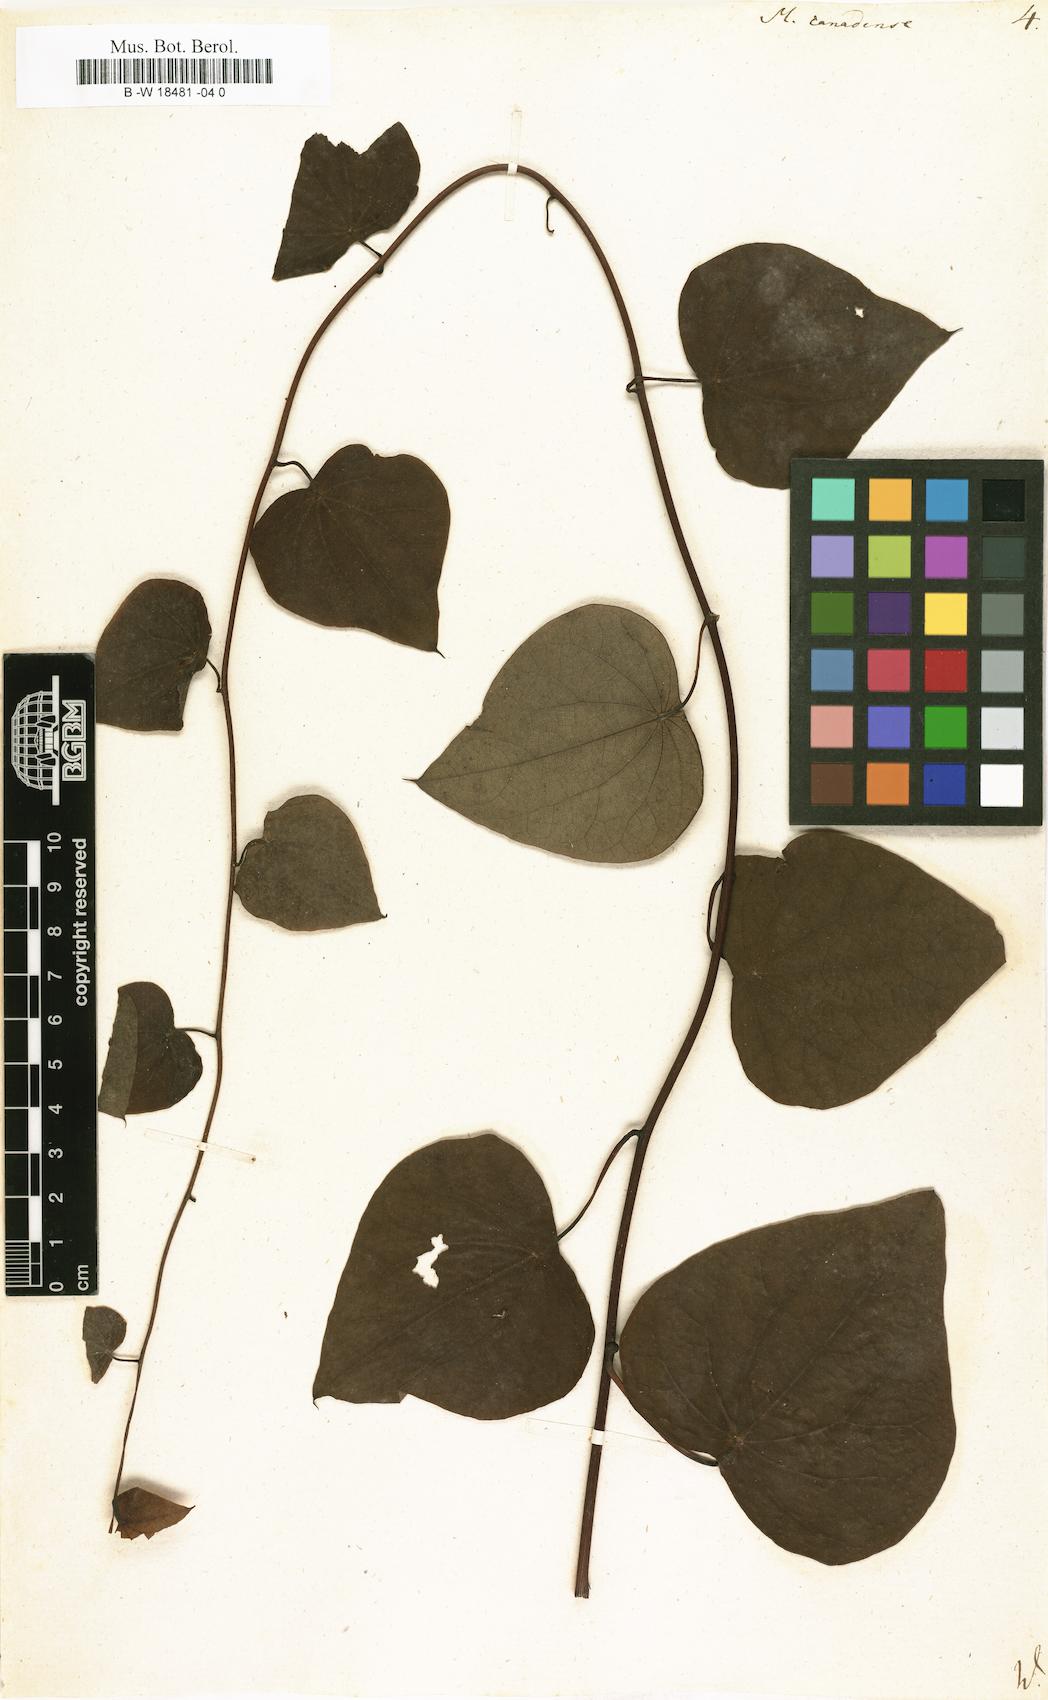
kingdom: Plantae
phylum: Tracheophyta
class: Magnoliopsida
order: Ranunculales
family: Menispermaceae
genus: Menispermum
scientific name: Menispermum canadense
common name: Moonseed
